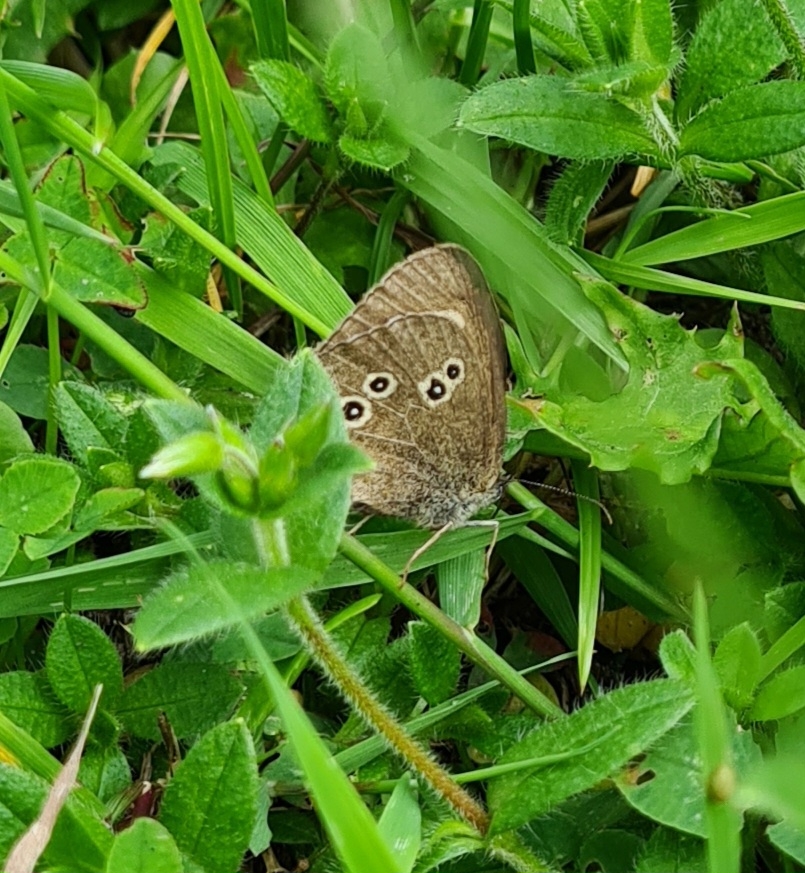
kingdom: Animalia
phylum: Arthropoda
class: Insecta
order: Lepidoptera
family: Nymphalidae
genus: Aphantopus
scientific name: Aphantopus hyperantus
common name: Engrandøje
